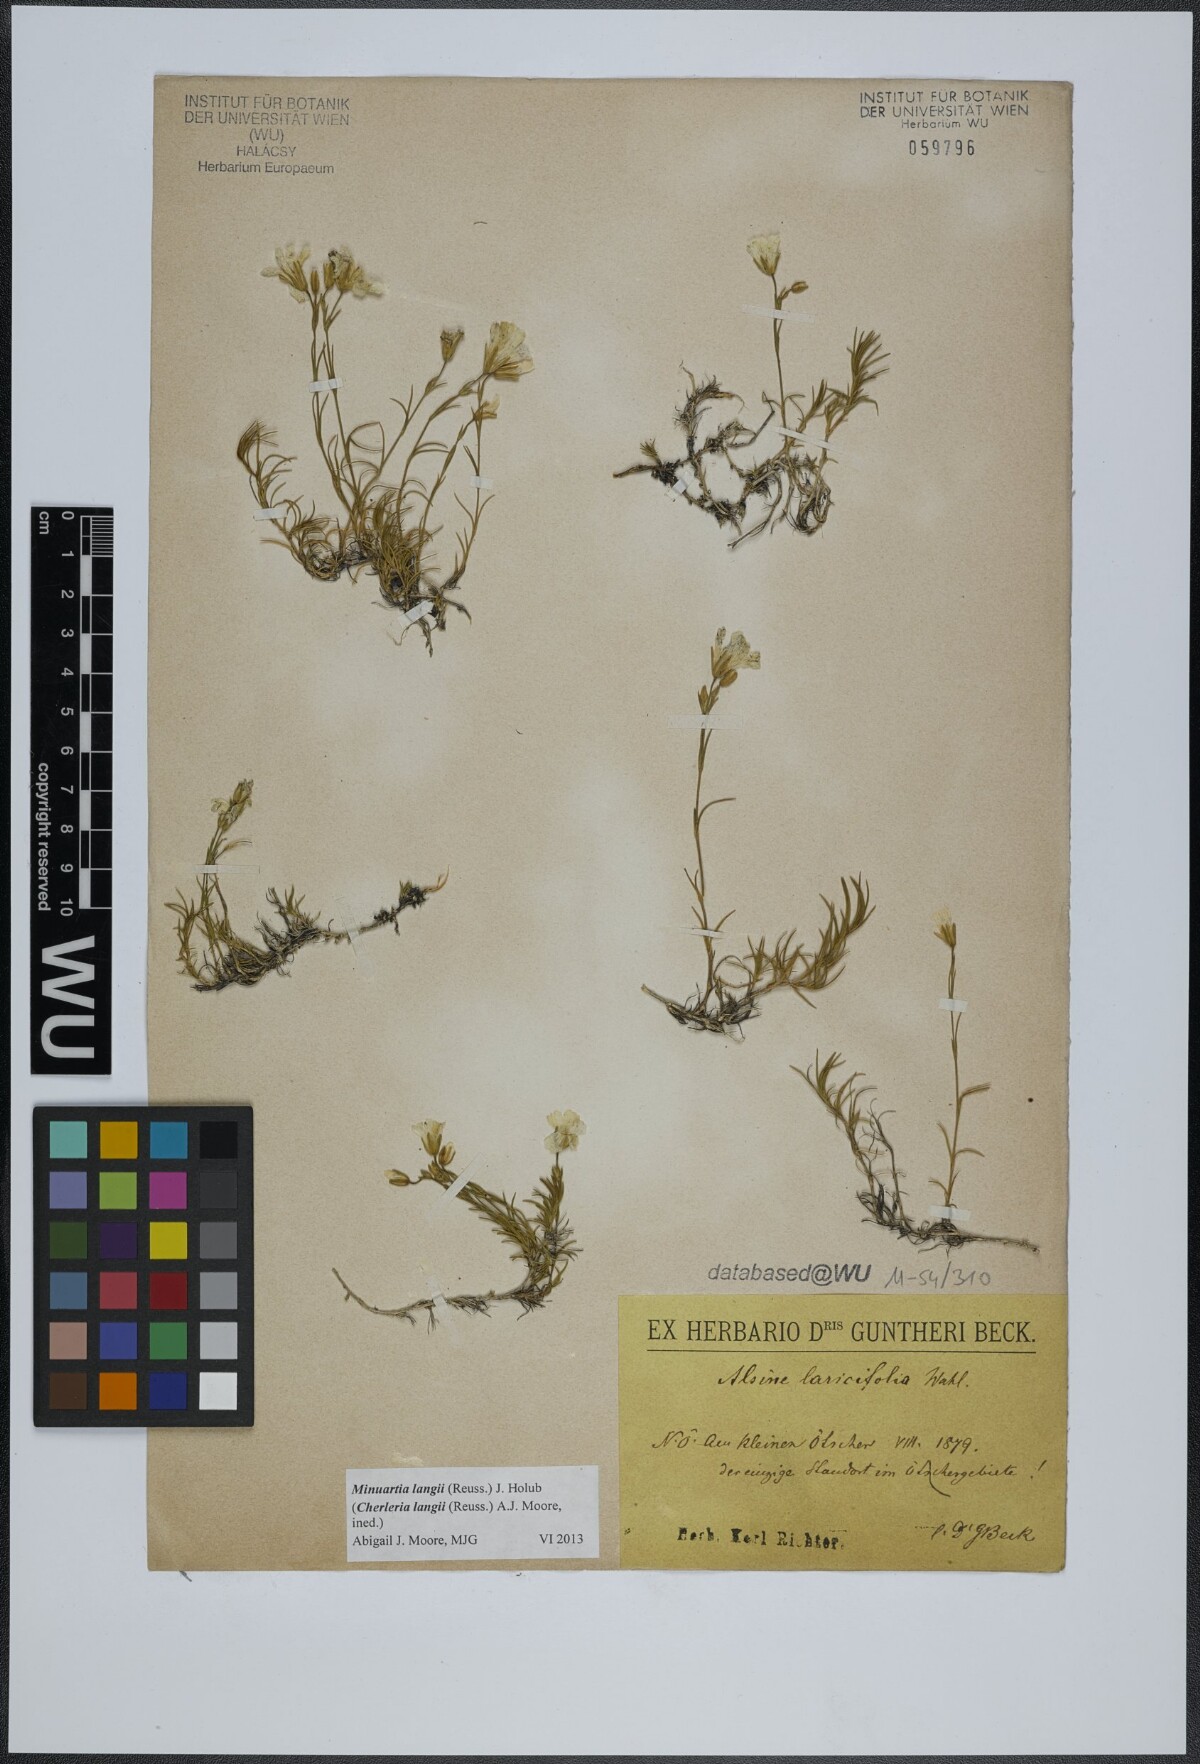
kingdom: Plantae
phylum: Tracheophyta
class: Magnoliopsida
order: Caryophyllales
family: Caryophyllaceae
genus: Cherleria
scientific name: Cherleria langii
